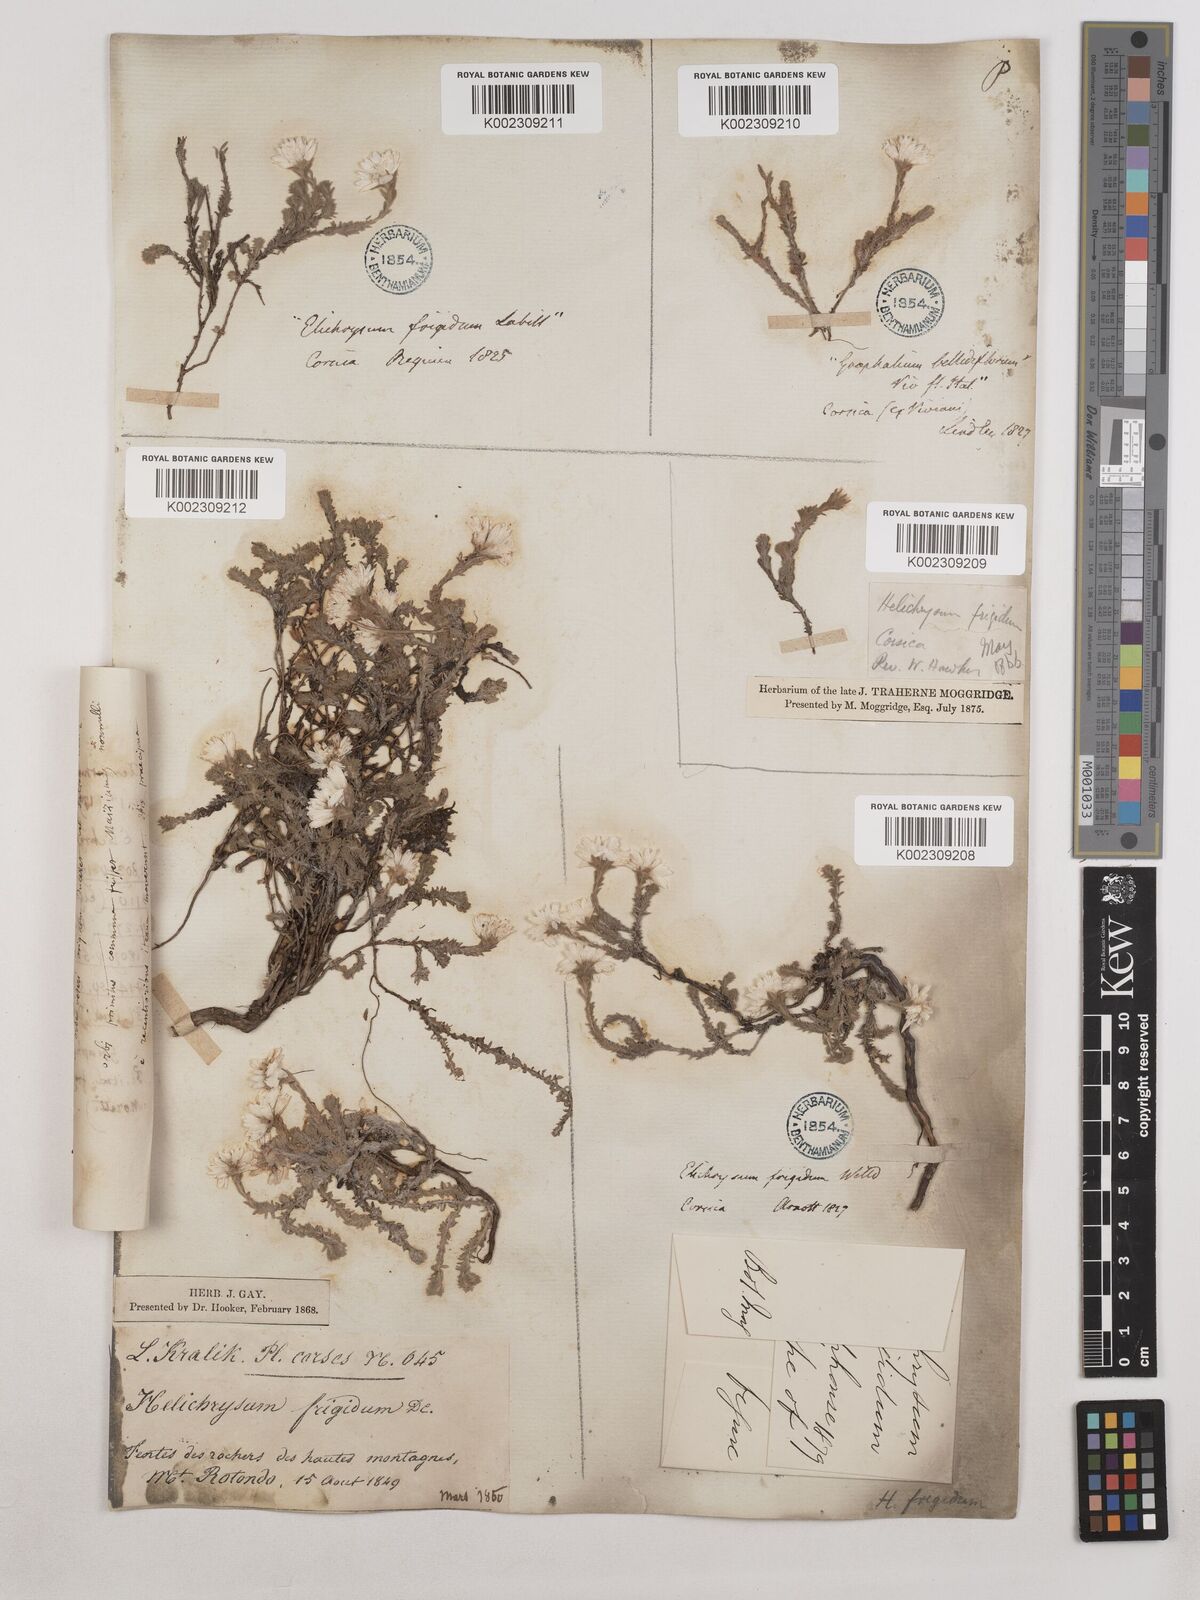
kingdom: Plantae
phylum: Tracheophyta
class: Magnoliopsida
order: Asterales
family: Asteraceae
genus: Castroviejoa
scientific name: Castroviejoa frigida
